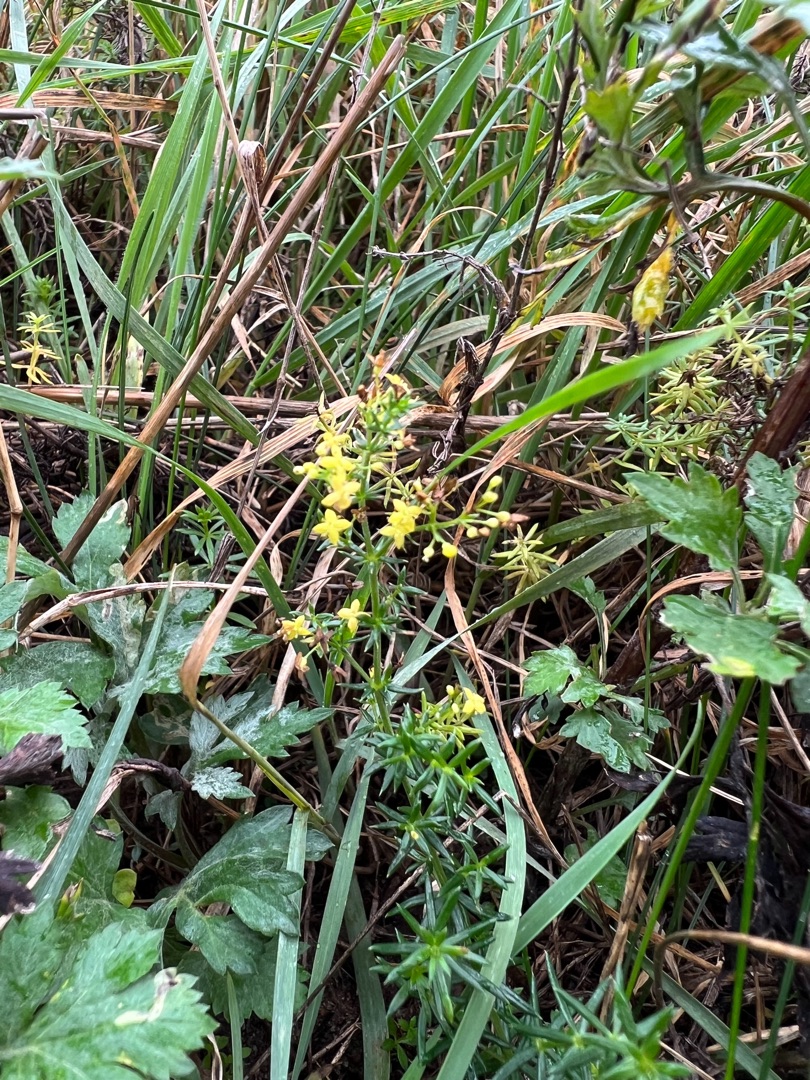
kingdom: Plantae
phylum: Tracheophyta
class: Magnoliopsida
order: Gentianales
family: Rubiaceae
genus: Galium
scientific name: Galium verum
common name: Gul snerre
